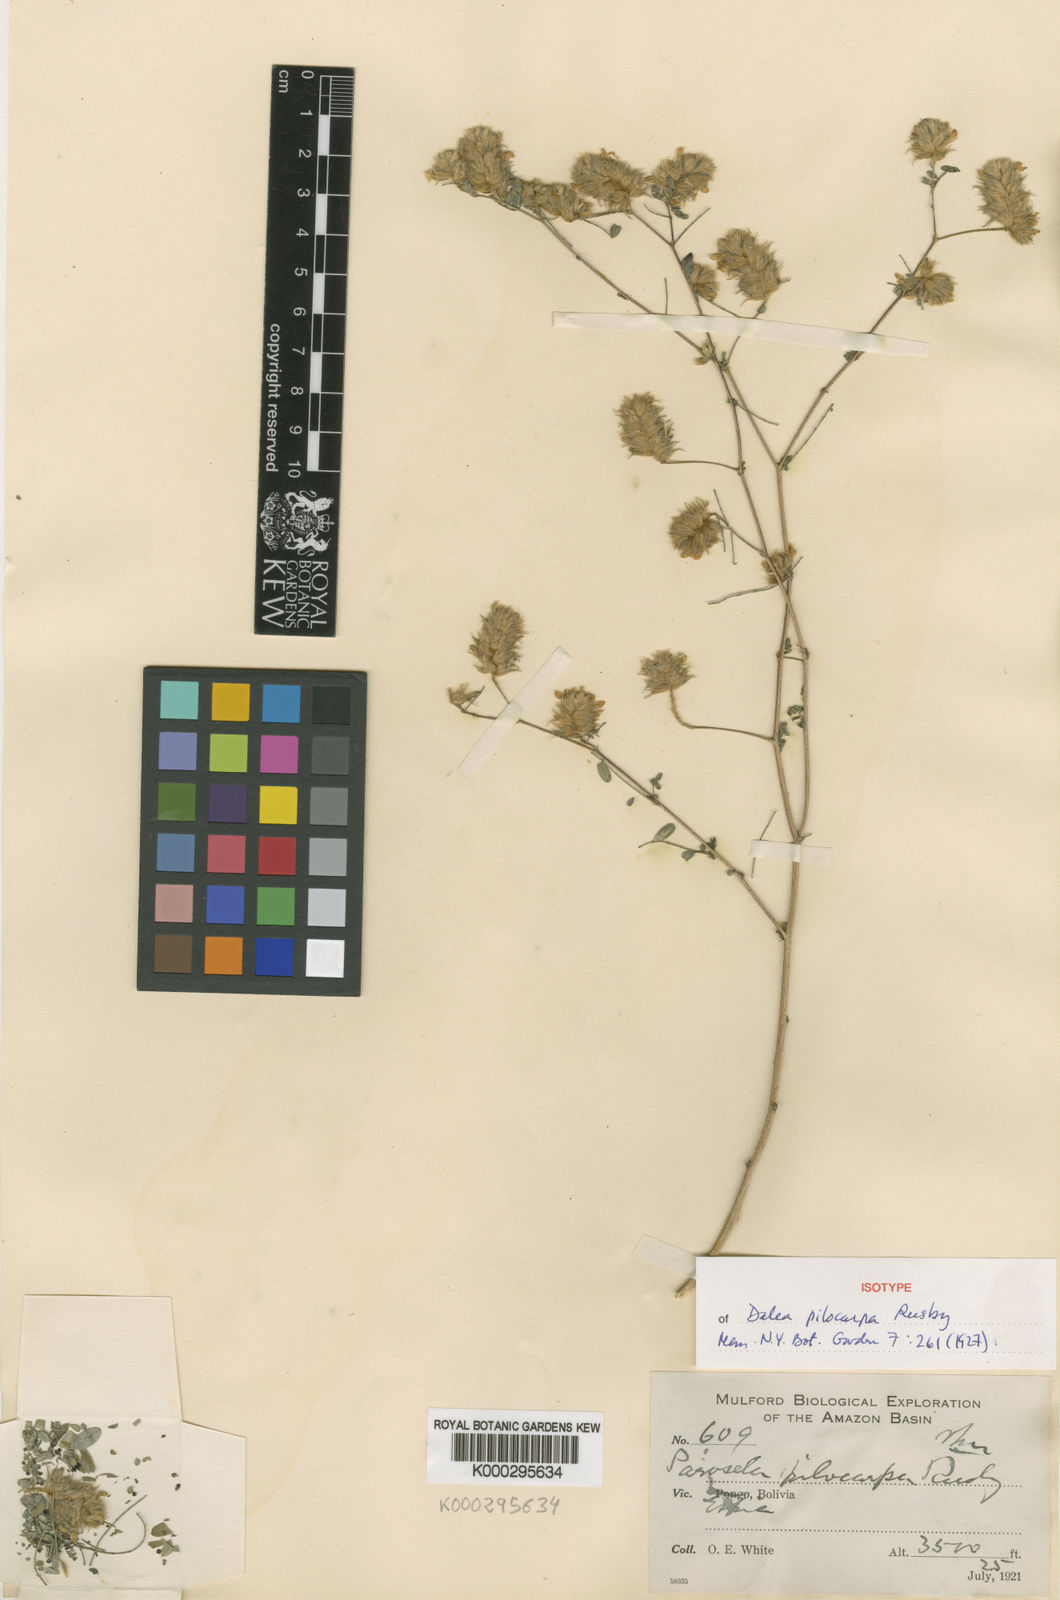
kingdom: Plantae
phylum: Tracheophyta
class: Magnoliopsida
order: Fabales
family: Fabaceae
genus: Dalea
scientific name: Dalea carthagenensis
